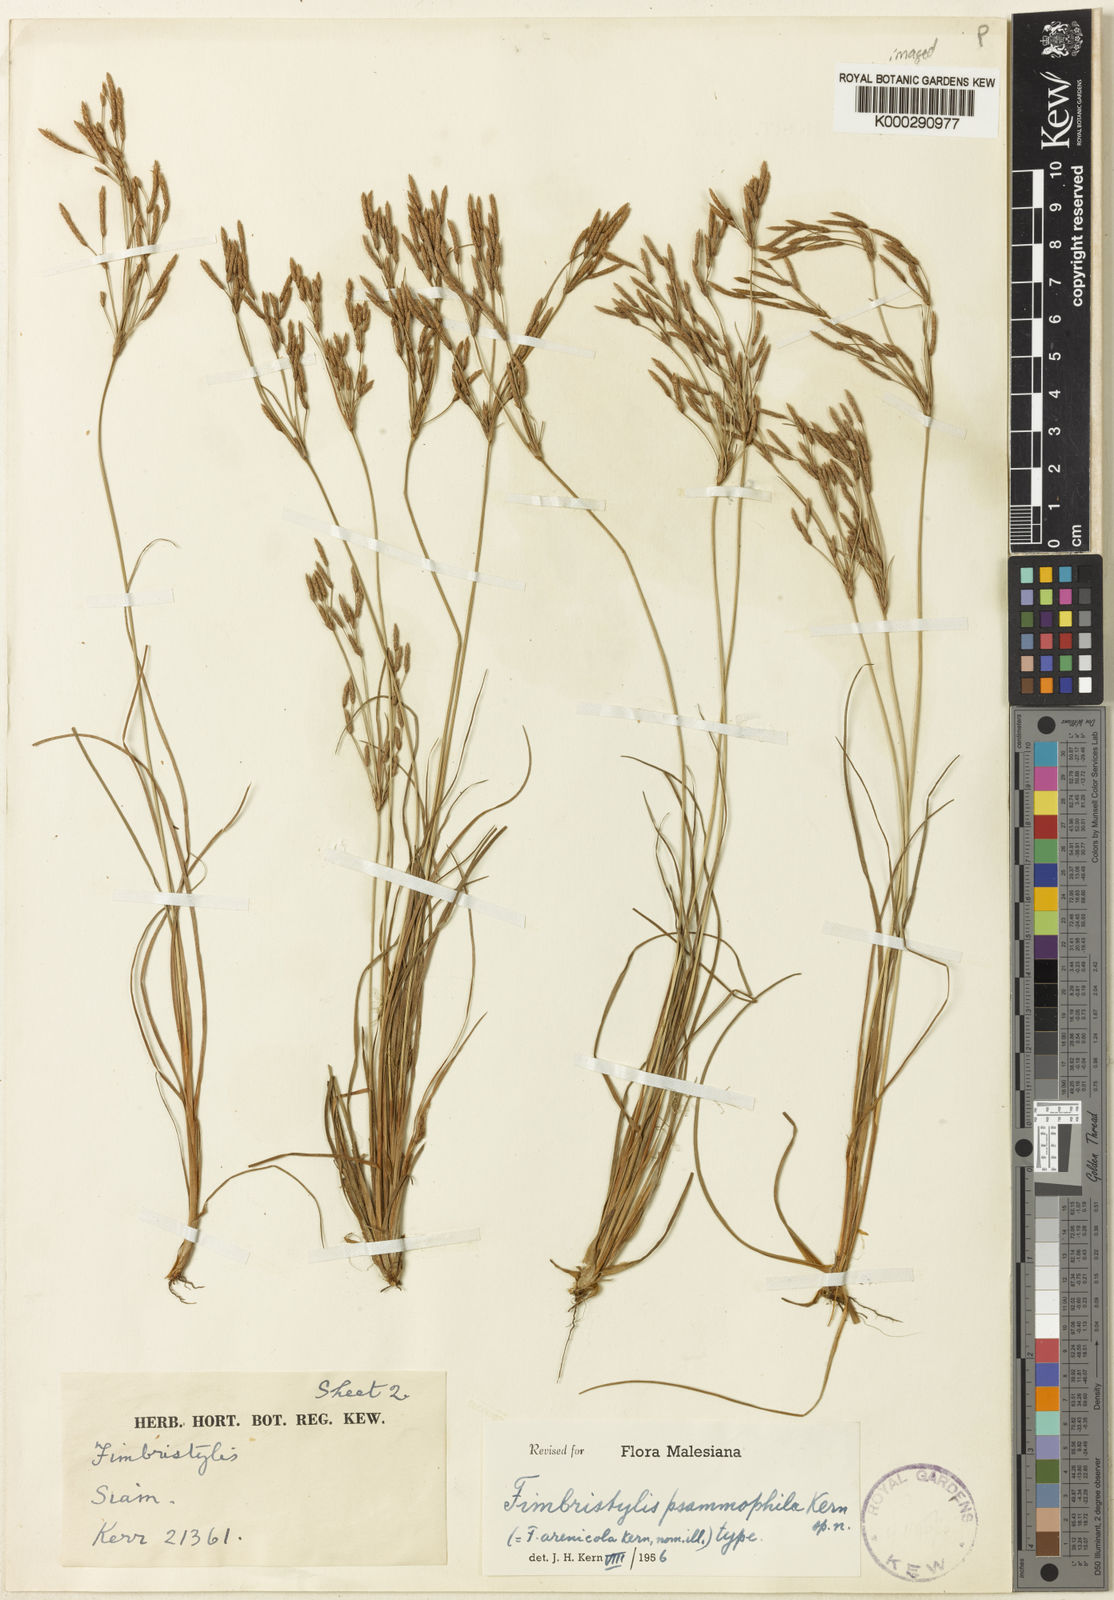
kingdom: Plantae
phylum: Tracheophyta
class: Liliopsida
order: Poales
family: Cyperaceae
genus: Fimbristylis
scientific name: Fimbristylis psammophila
